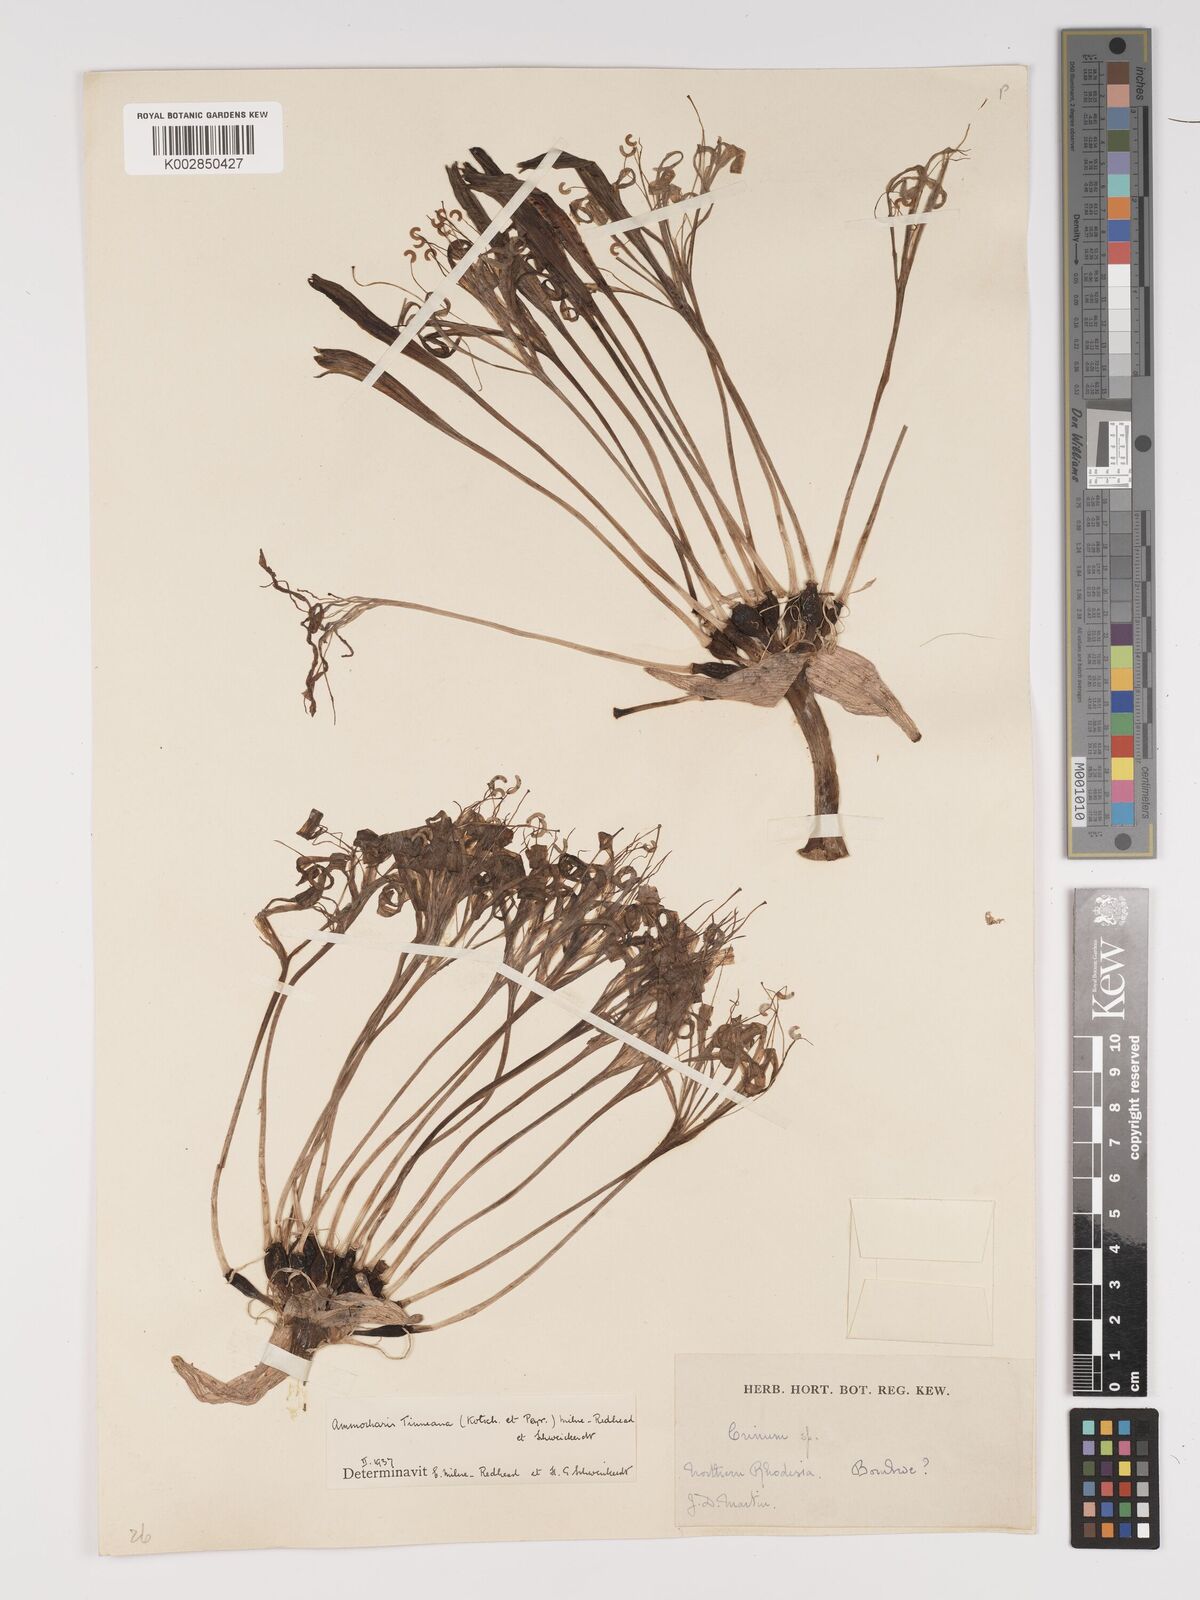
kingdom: Plantae
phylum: Tracheophyta
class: Liliopsida
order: Asparagales
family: Amaryllidaceae
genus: Ammocharis
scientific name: Ammocharis tinneana
